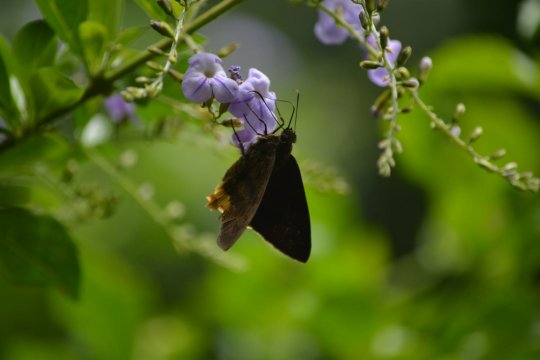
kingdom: Animalia
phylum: Arthropoda
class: Insecta
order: Lepidoptera
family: Hesperiidae
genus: Astraptes
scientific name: Astraptes egregius
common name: Small-spotted Flasher
